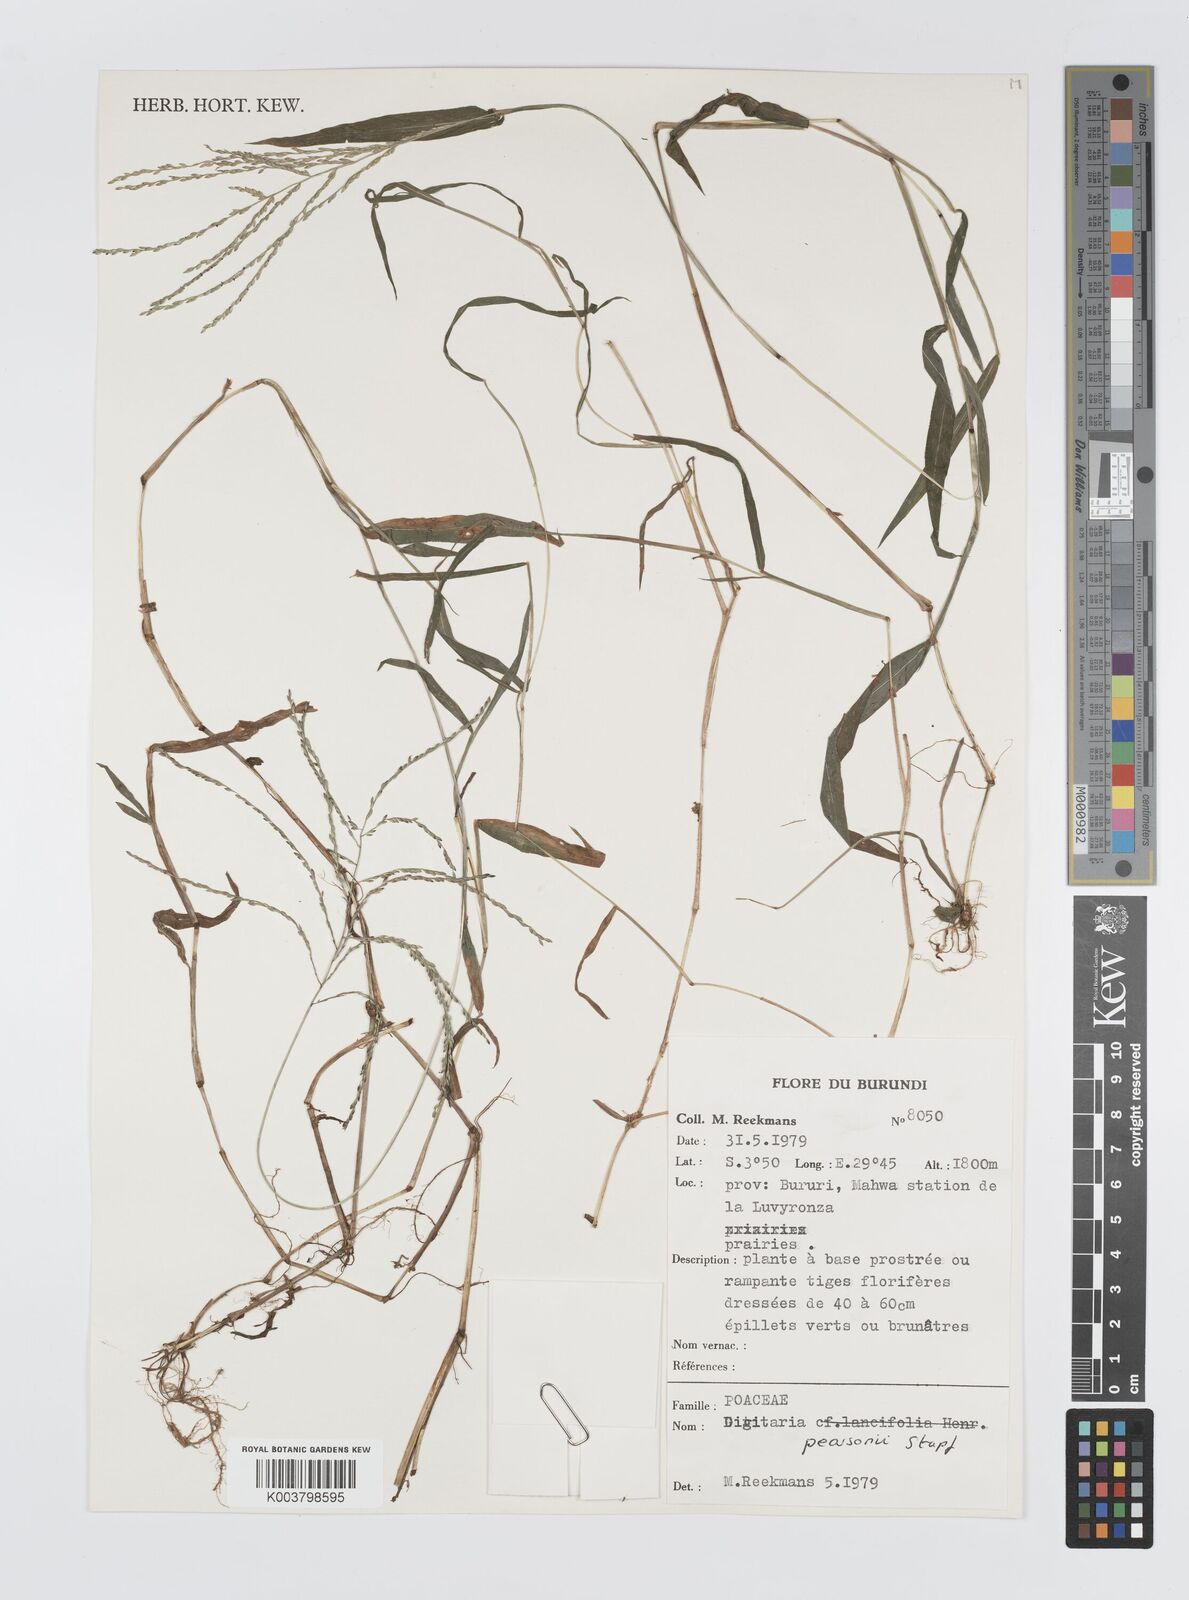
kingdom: Plantae
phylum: Tracheophyta
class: Liliopsida
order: Poales
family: Poaceae
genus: Digitaria
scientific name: Digitaria pearsonii
